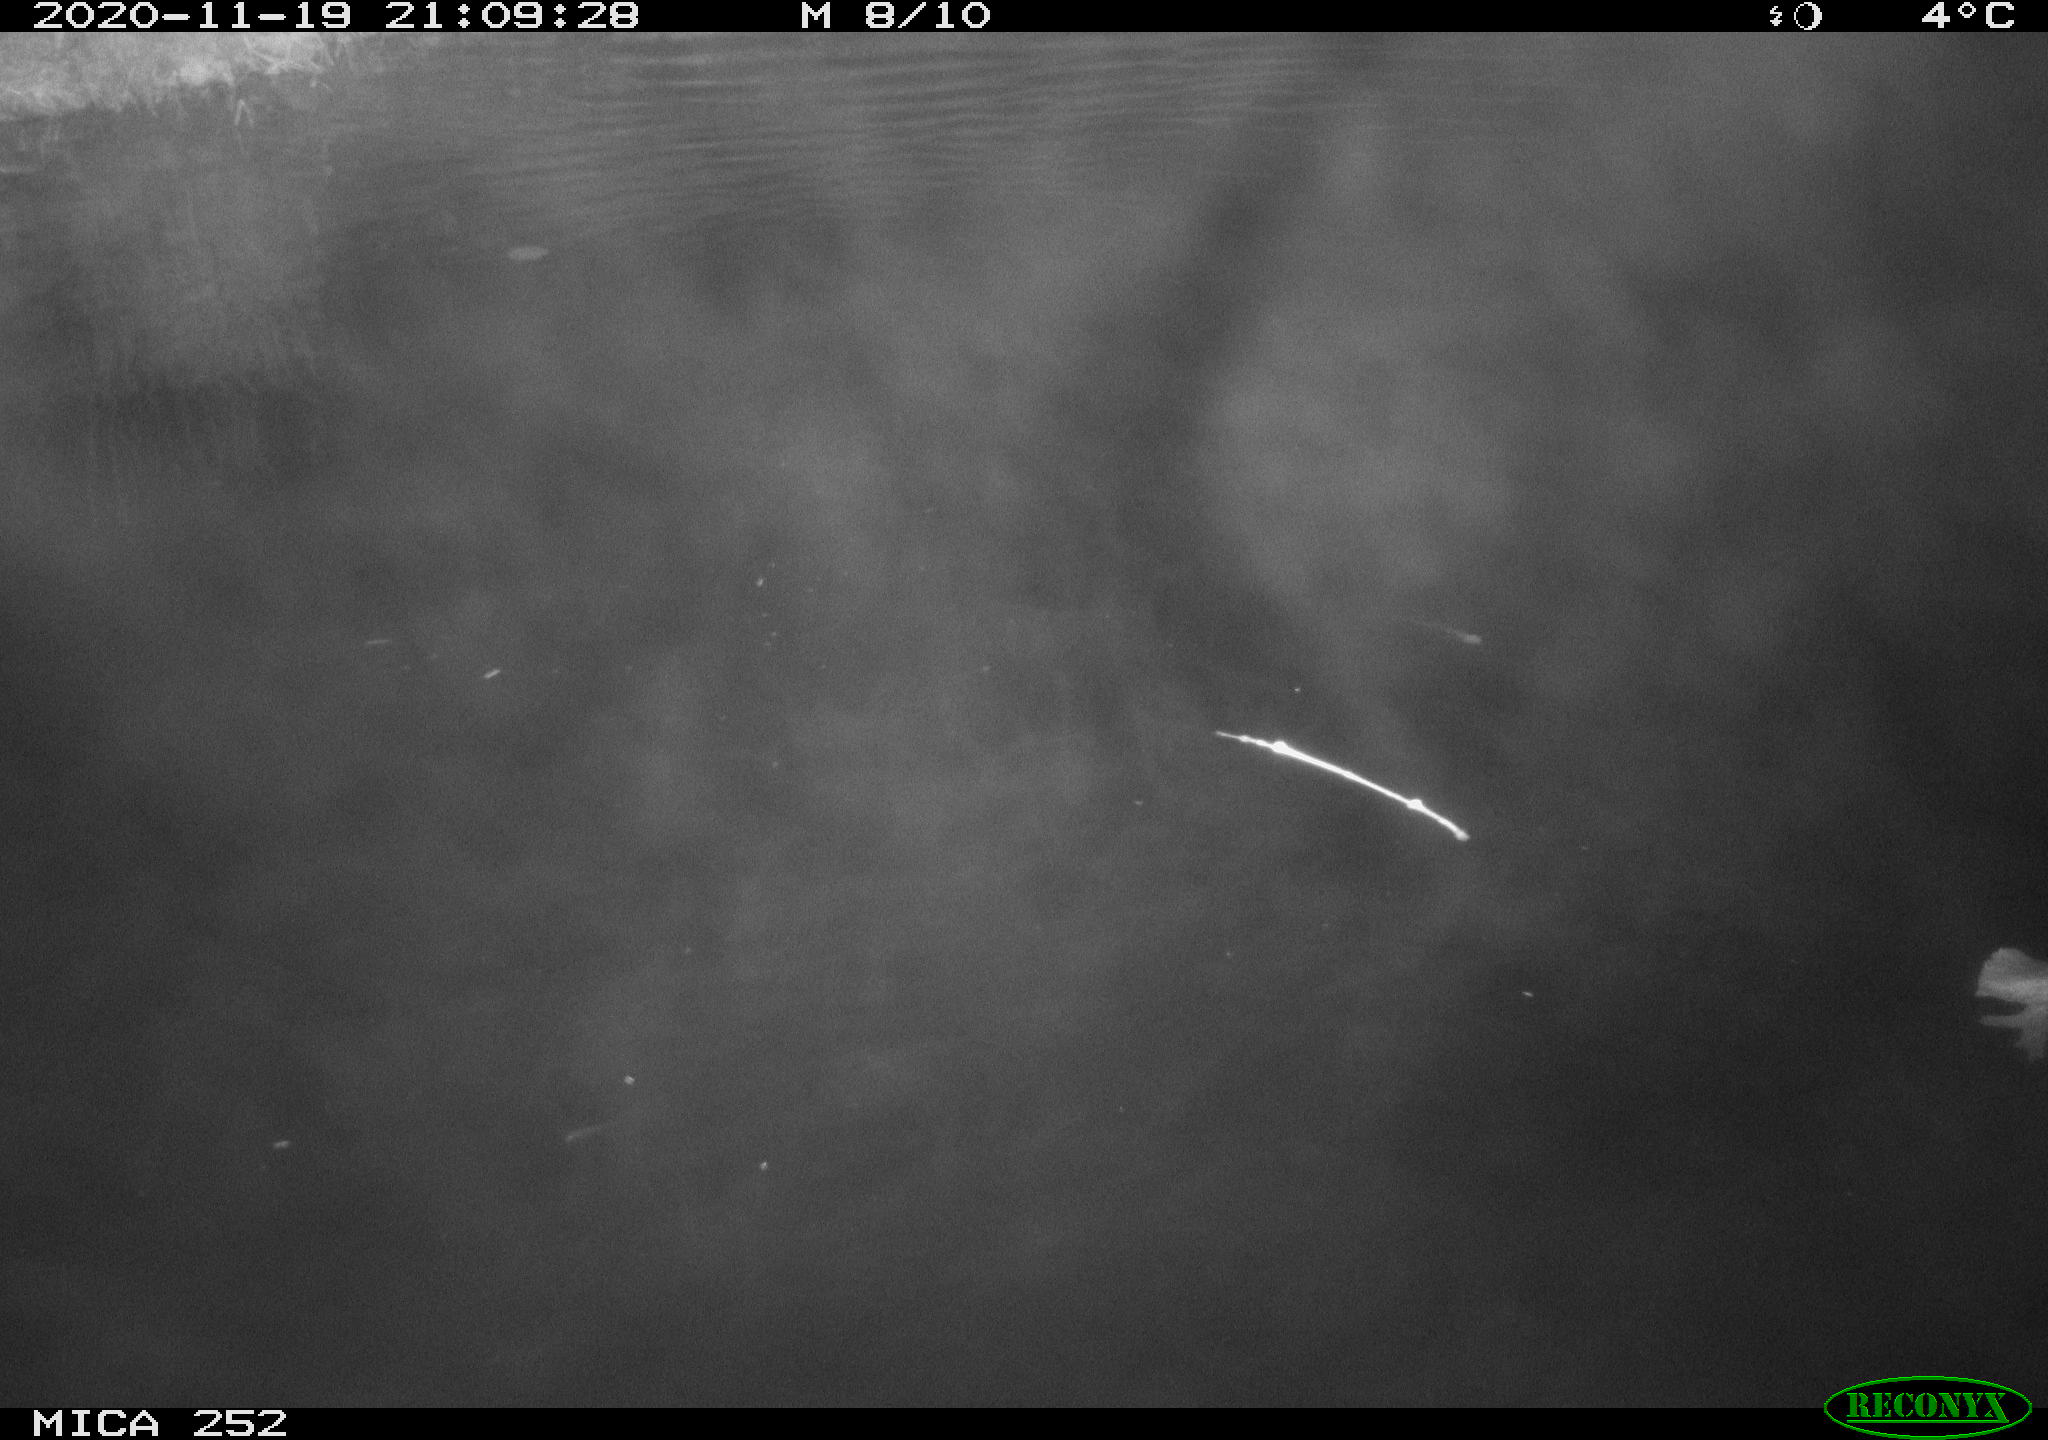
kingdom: Animalia
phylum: Chordata
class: Mammalia
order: Rodentia
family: Castoridae
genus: Castor
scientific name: Castor fiber
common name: Eurasian beaver
